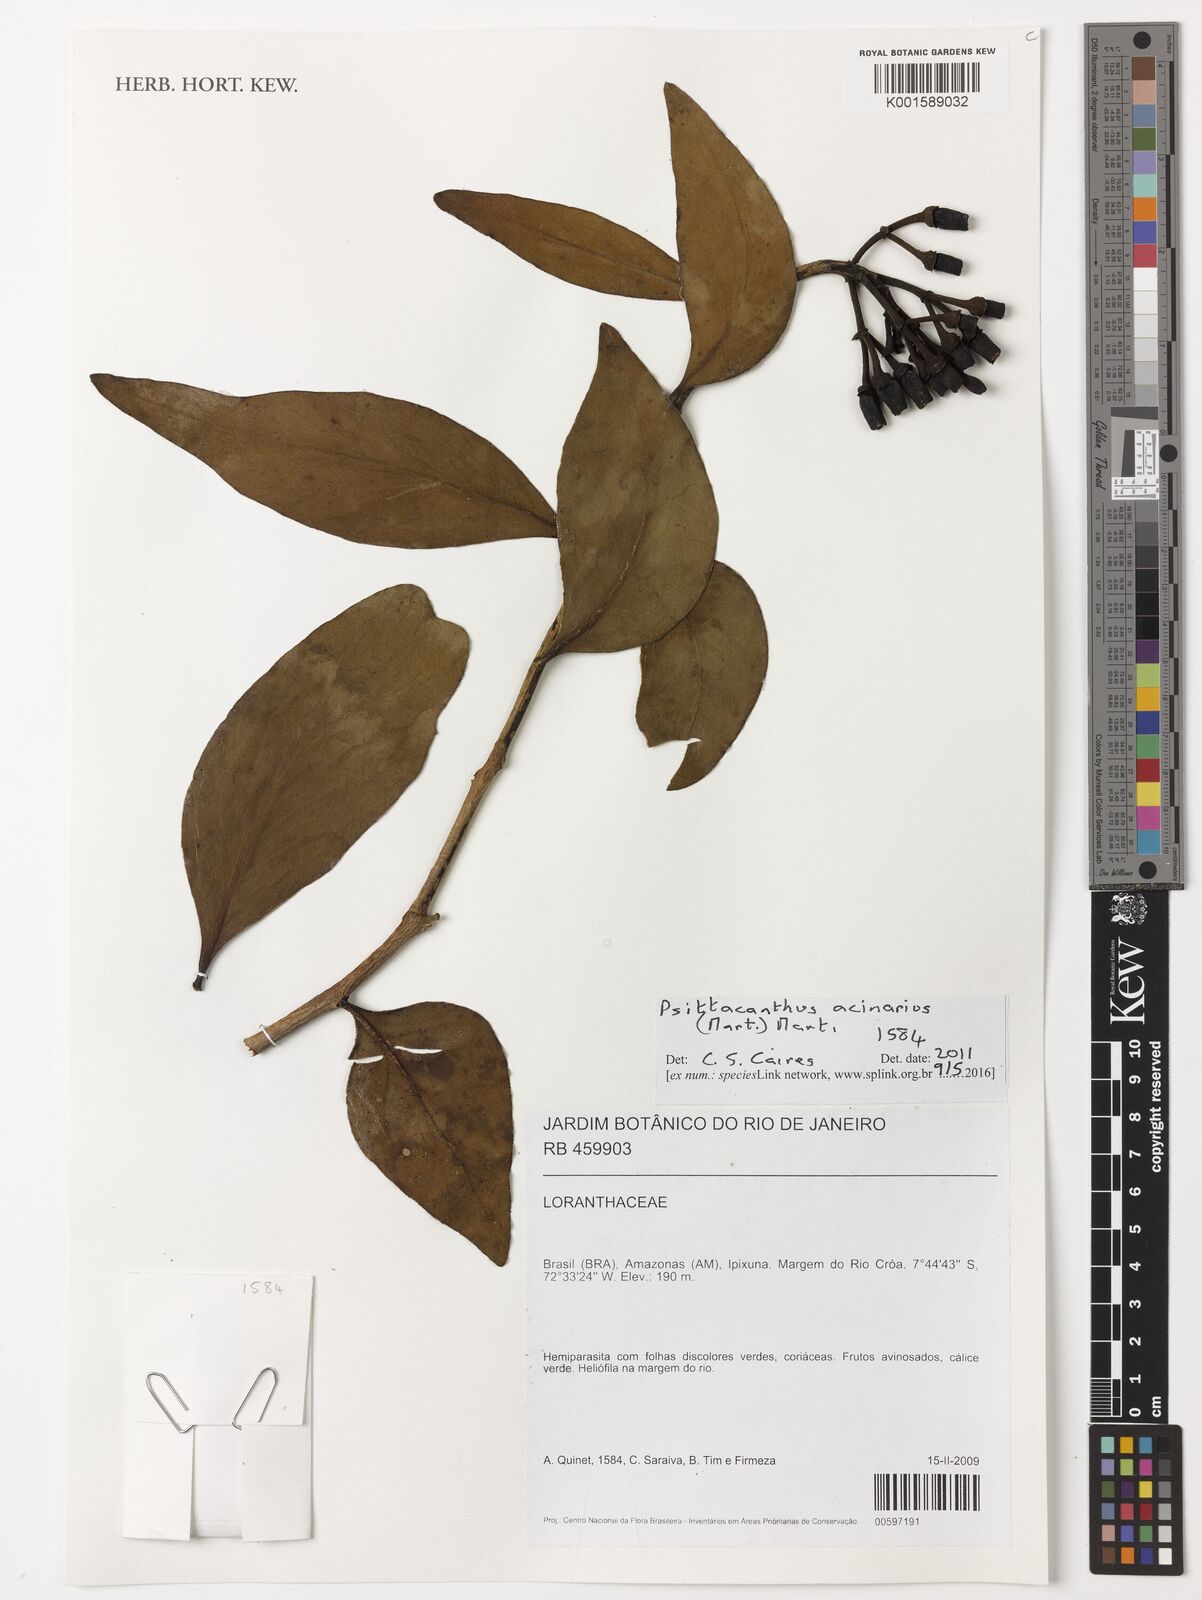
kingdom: Plantae
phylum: Tracheophyta
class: Magnoliopsida
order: Santalales
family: Loranthaceae
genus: Psittacanthus
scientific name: Psittacanthus acinarius
